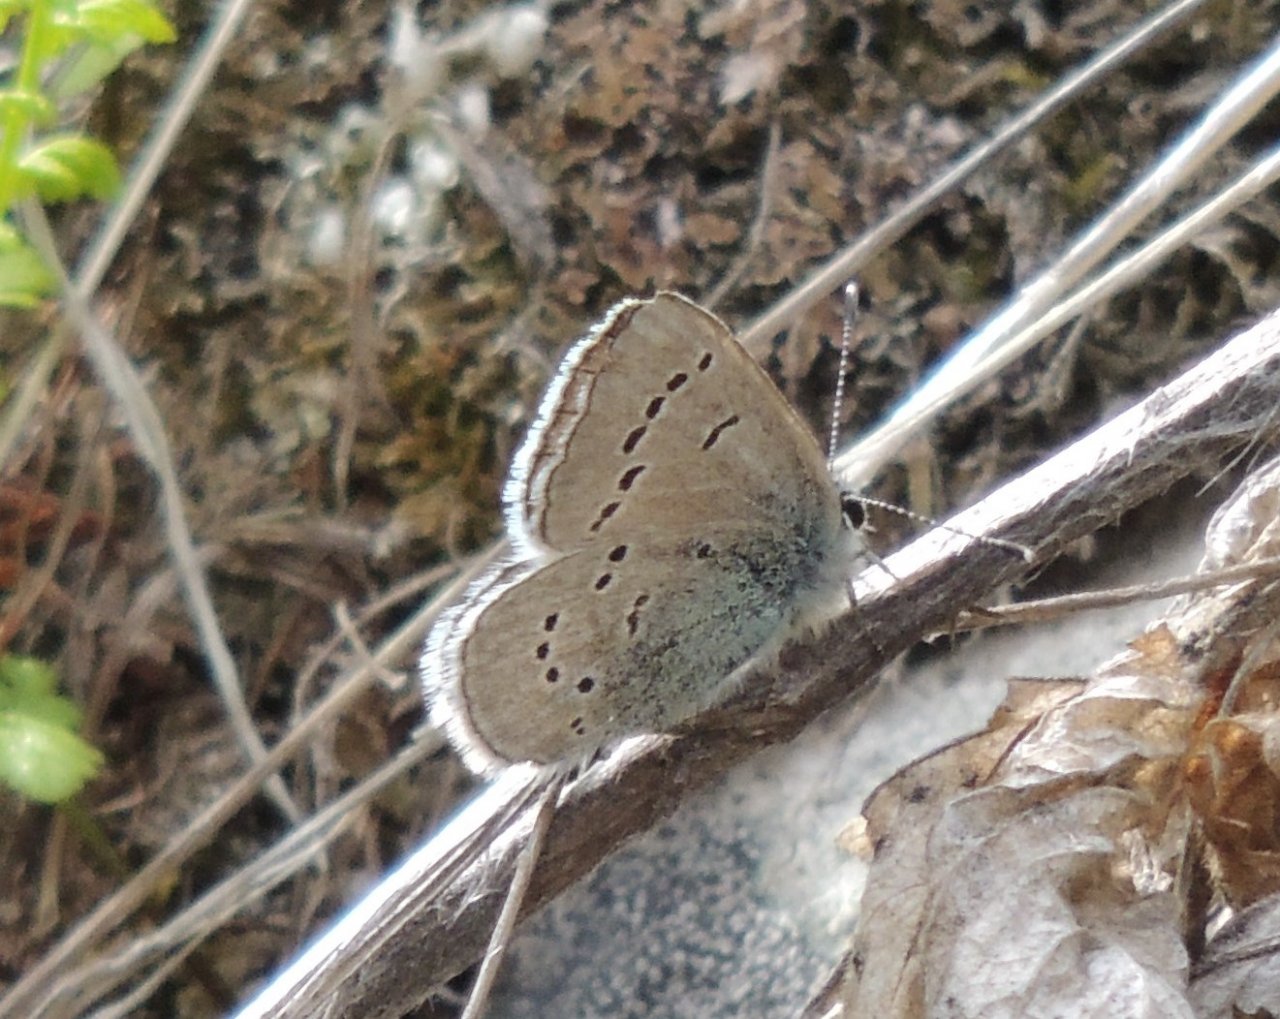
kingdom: Animalia
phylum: Arthropoda
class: Insecta
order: Lepidoptera
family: Lycaenidae
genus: Glaucopsyche
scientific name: Glaucopsyche lygdamus
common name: Silvery Blue
